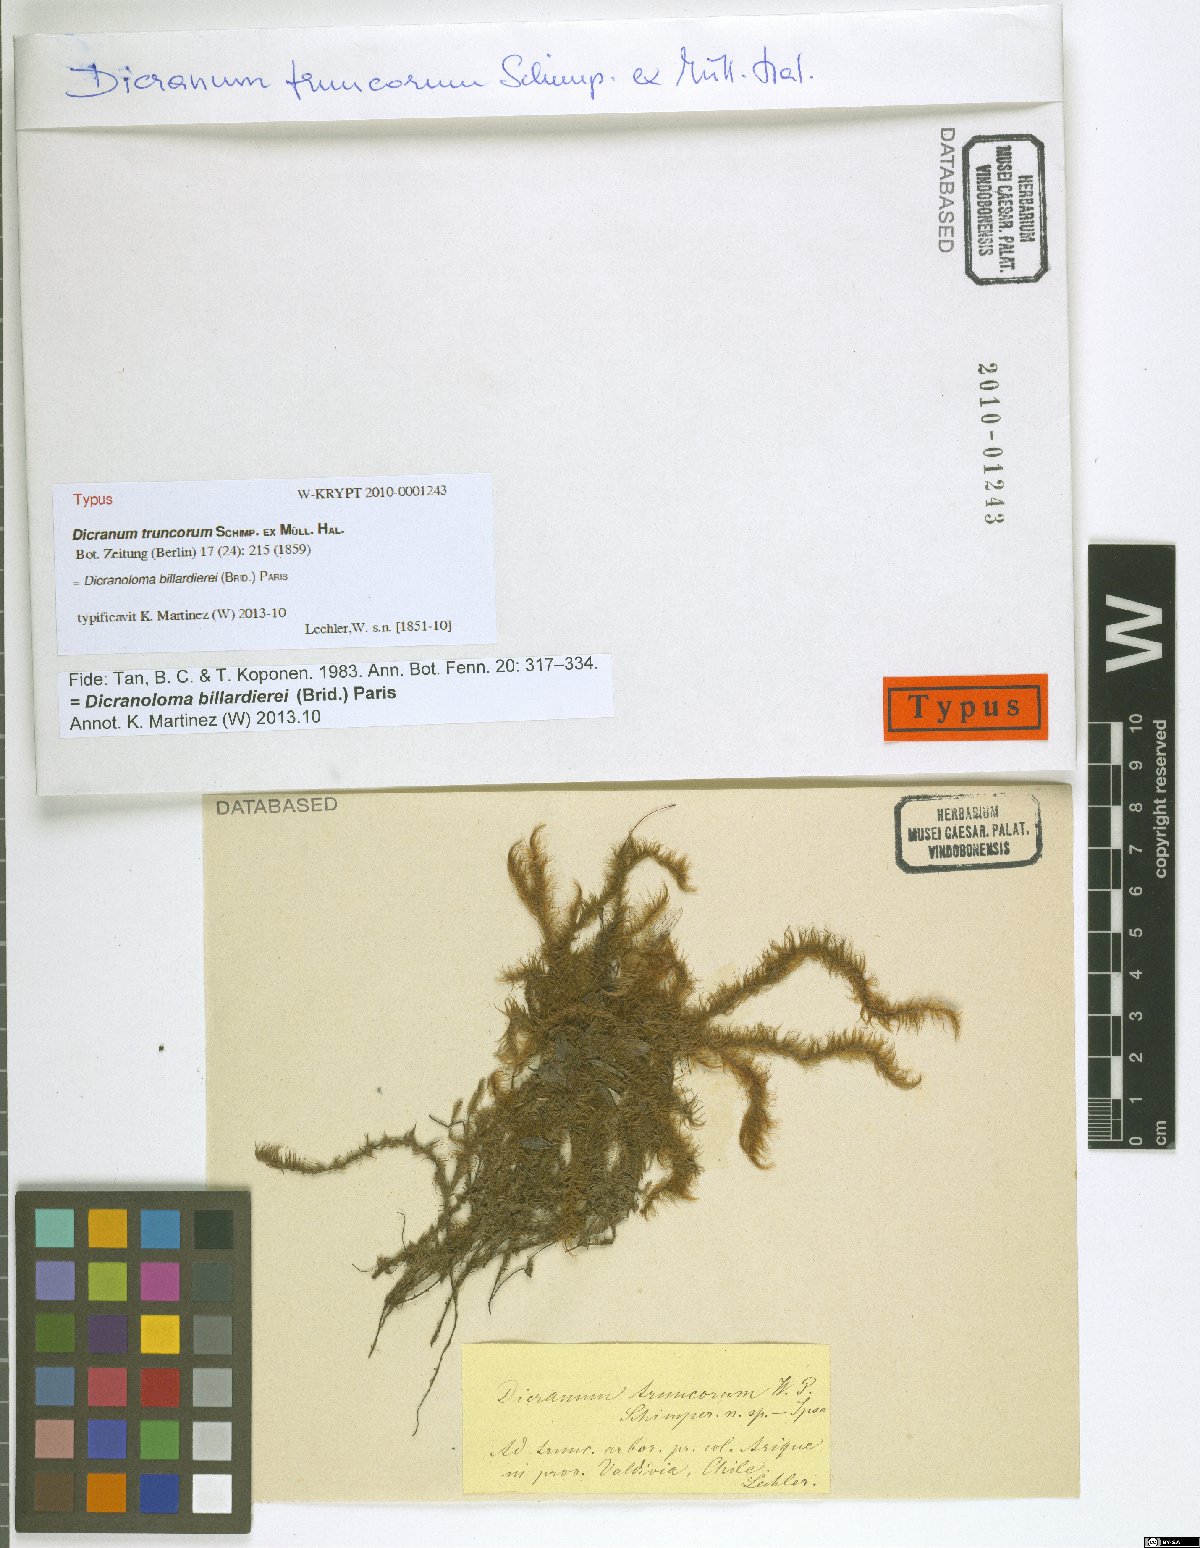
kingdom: Plantae
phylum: Bryophyta
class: Bryopsida
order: Dicranales
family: Dicranaceae
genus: Dicranoloma
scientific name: Dicranoloma billarderii
